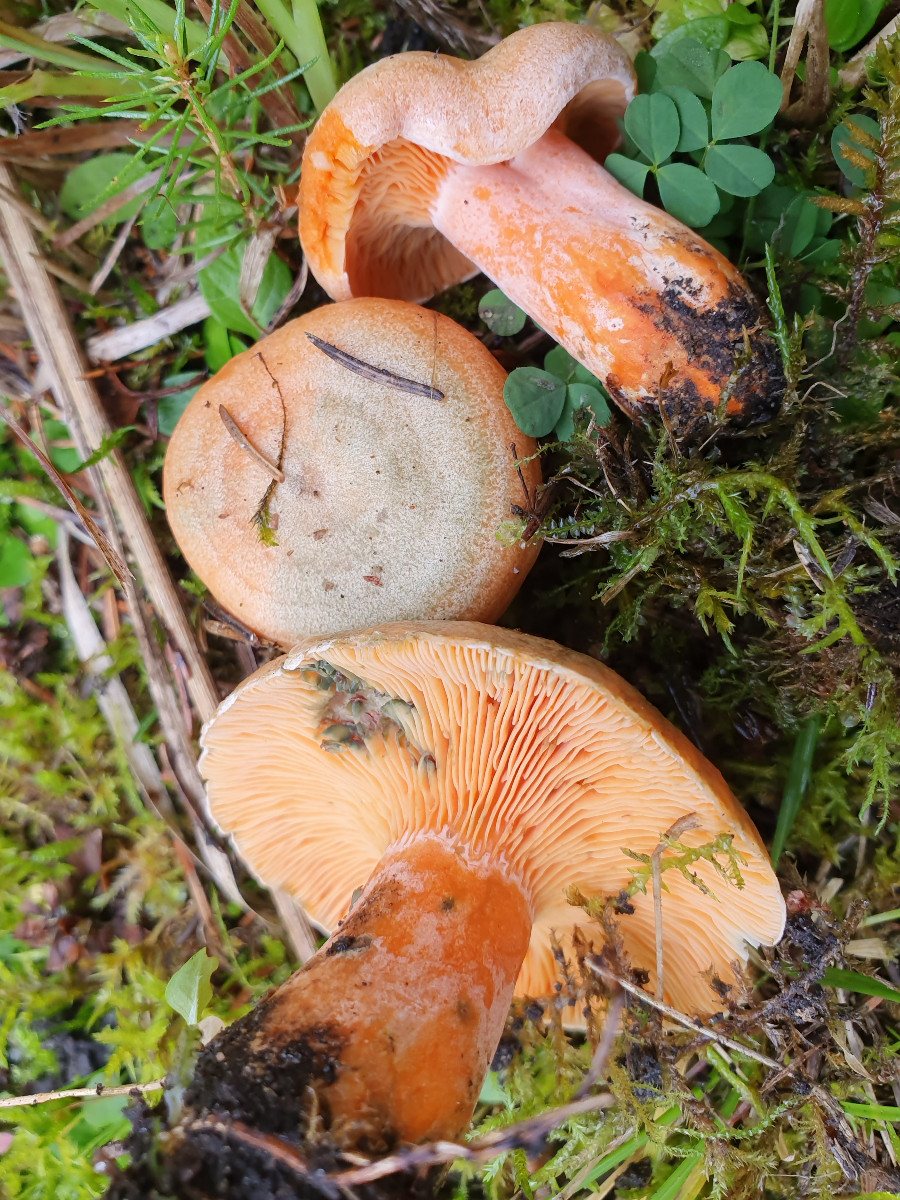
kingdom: Fungi
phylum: Basidiomycota
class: Agaricomycetes
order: Russulales
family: Russulaceae
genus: Lactarius
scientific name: Lactarius deterrimus
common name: gran-mælkehat
